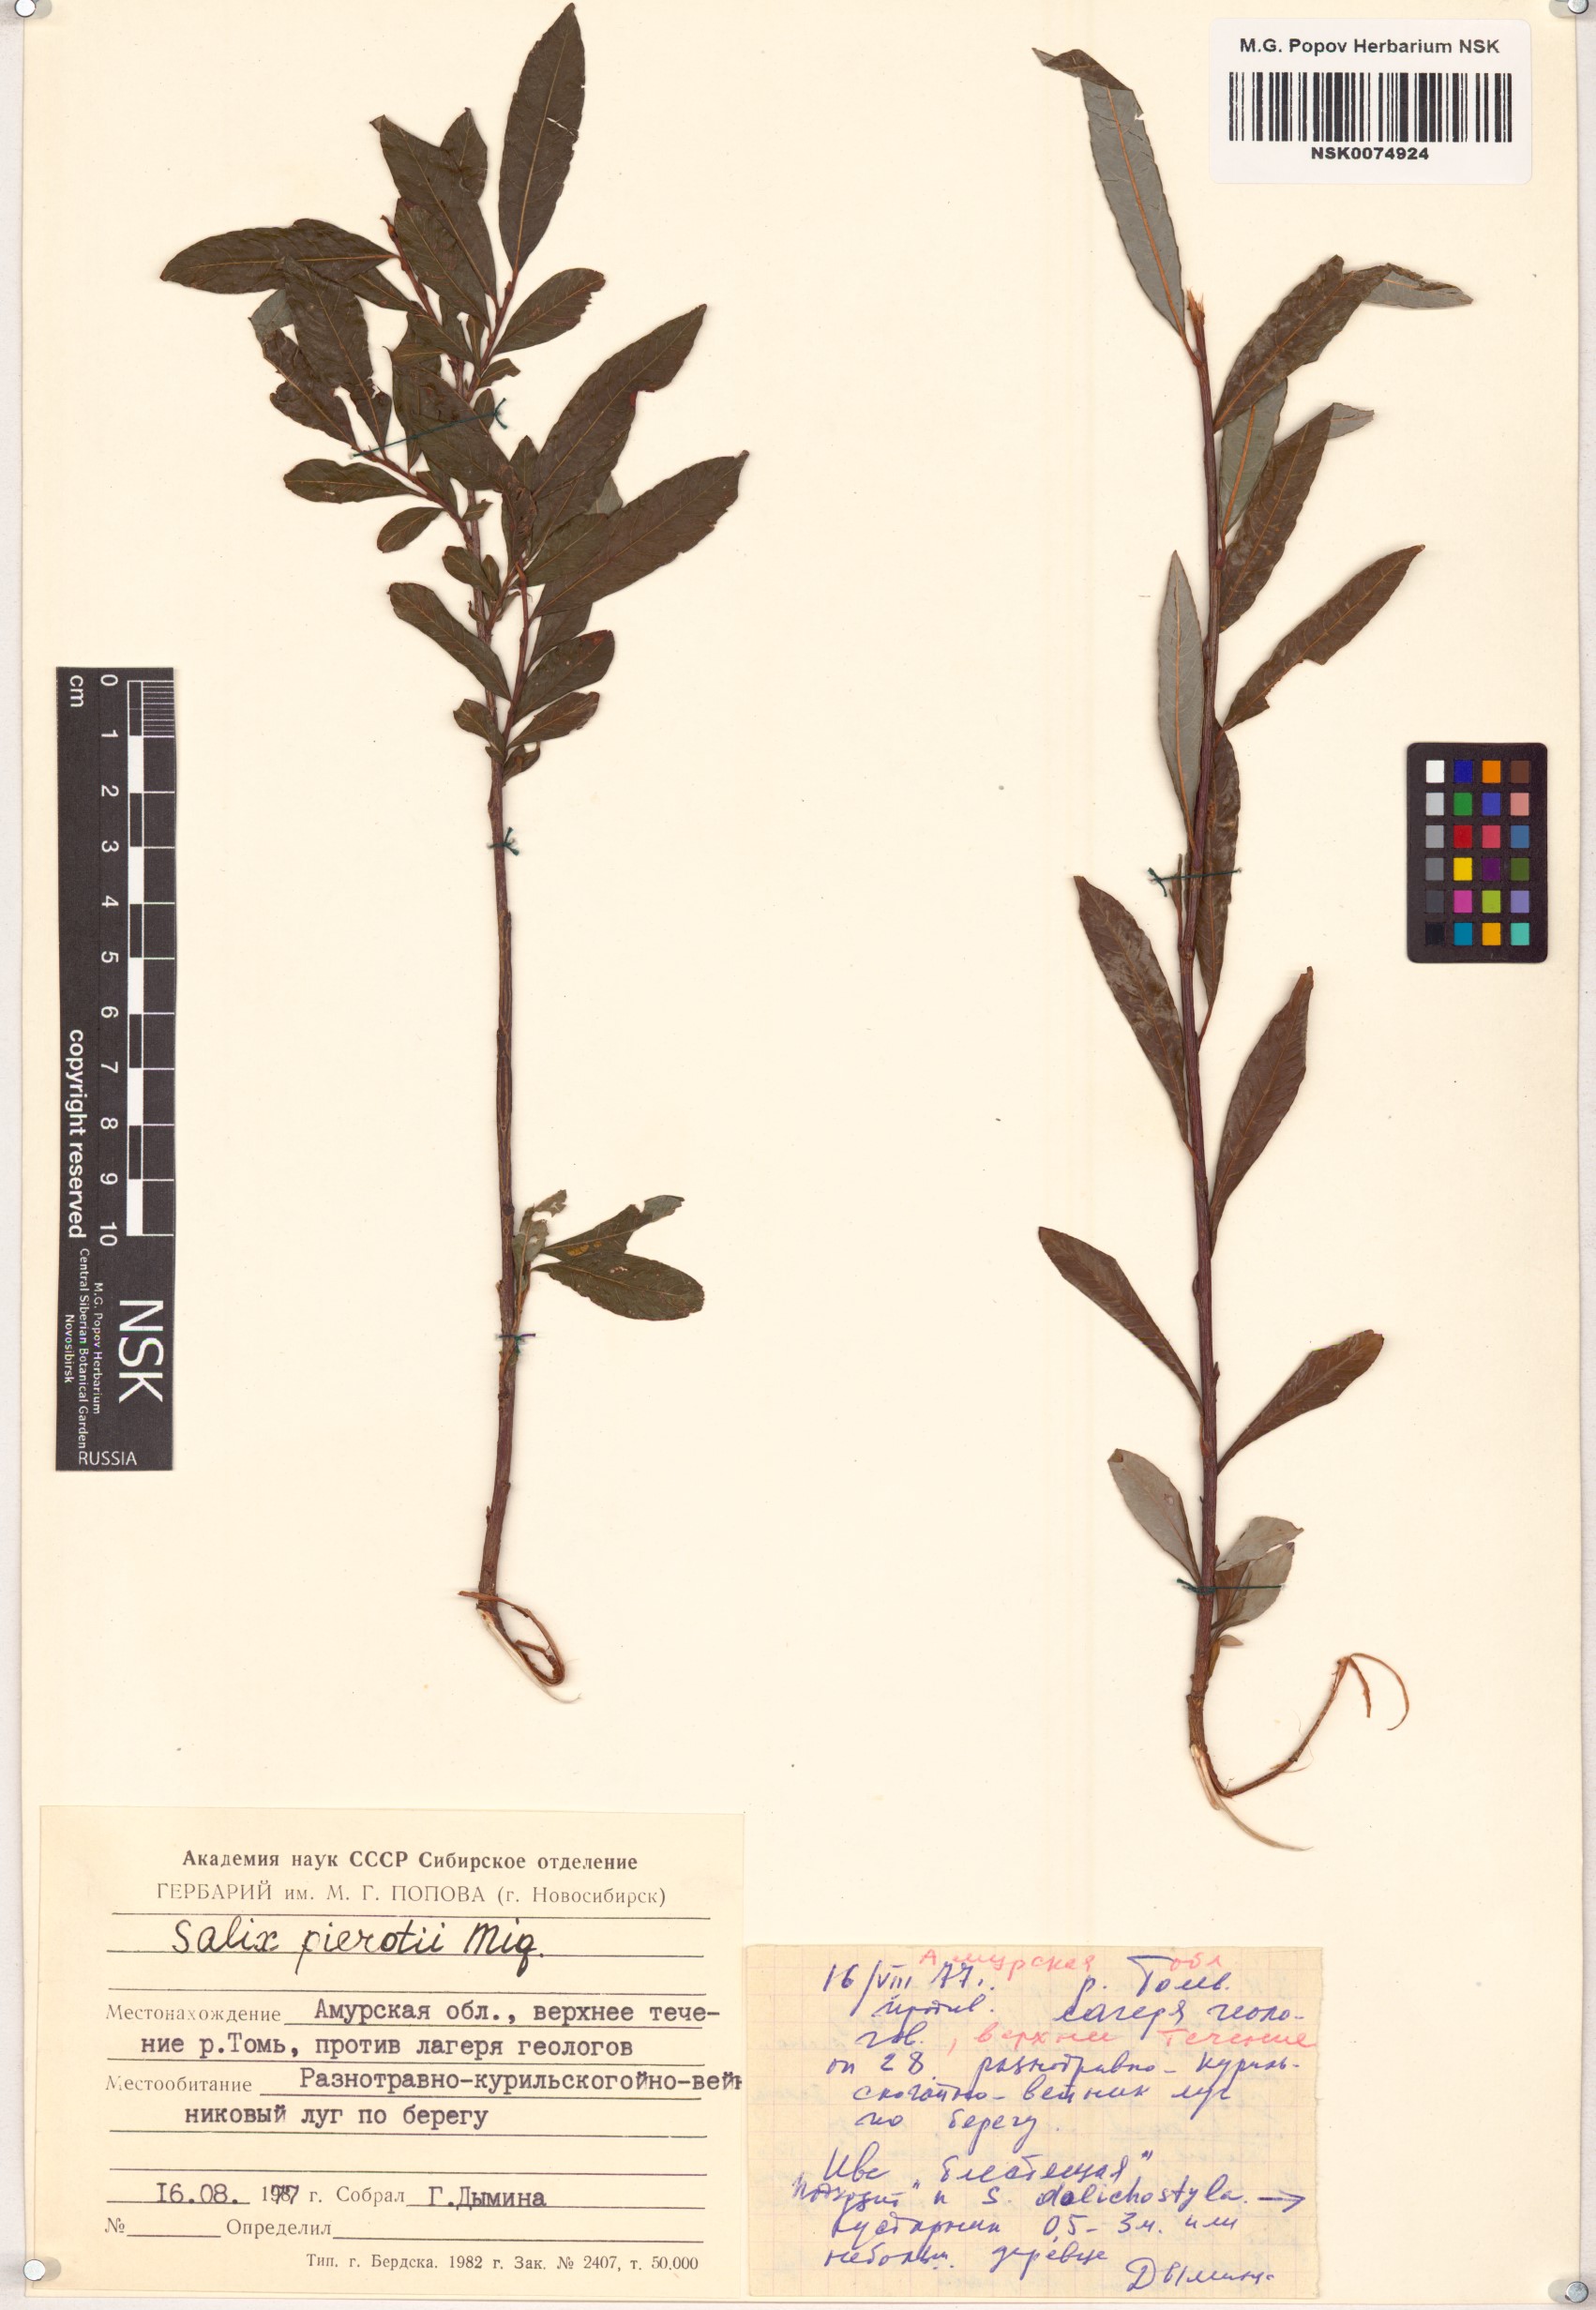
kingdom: Plantae
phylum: Tracheophyta
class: Magnoliopsida
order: Malpighiales
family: Salicaceae
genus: Salix
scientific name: Salix pierotii
